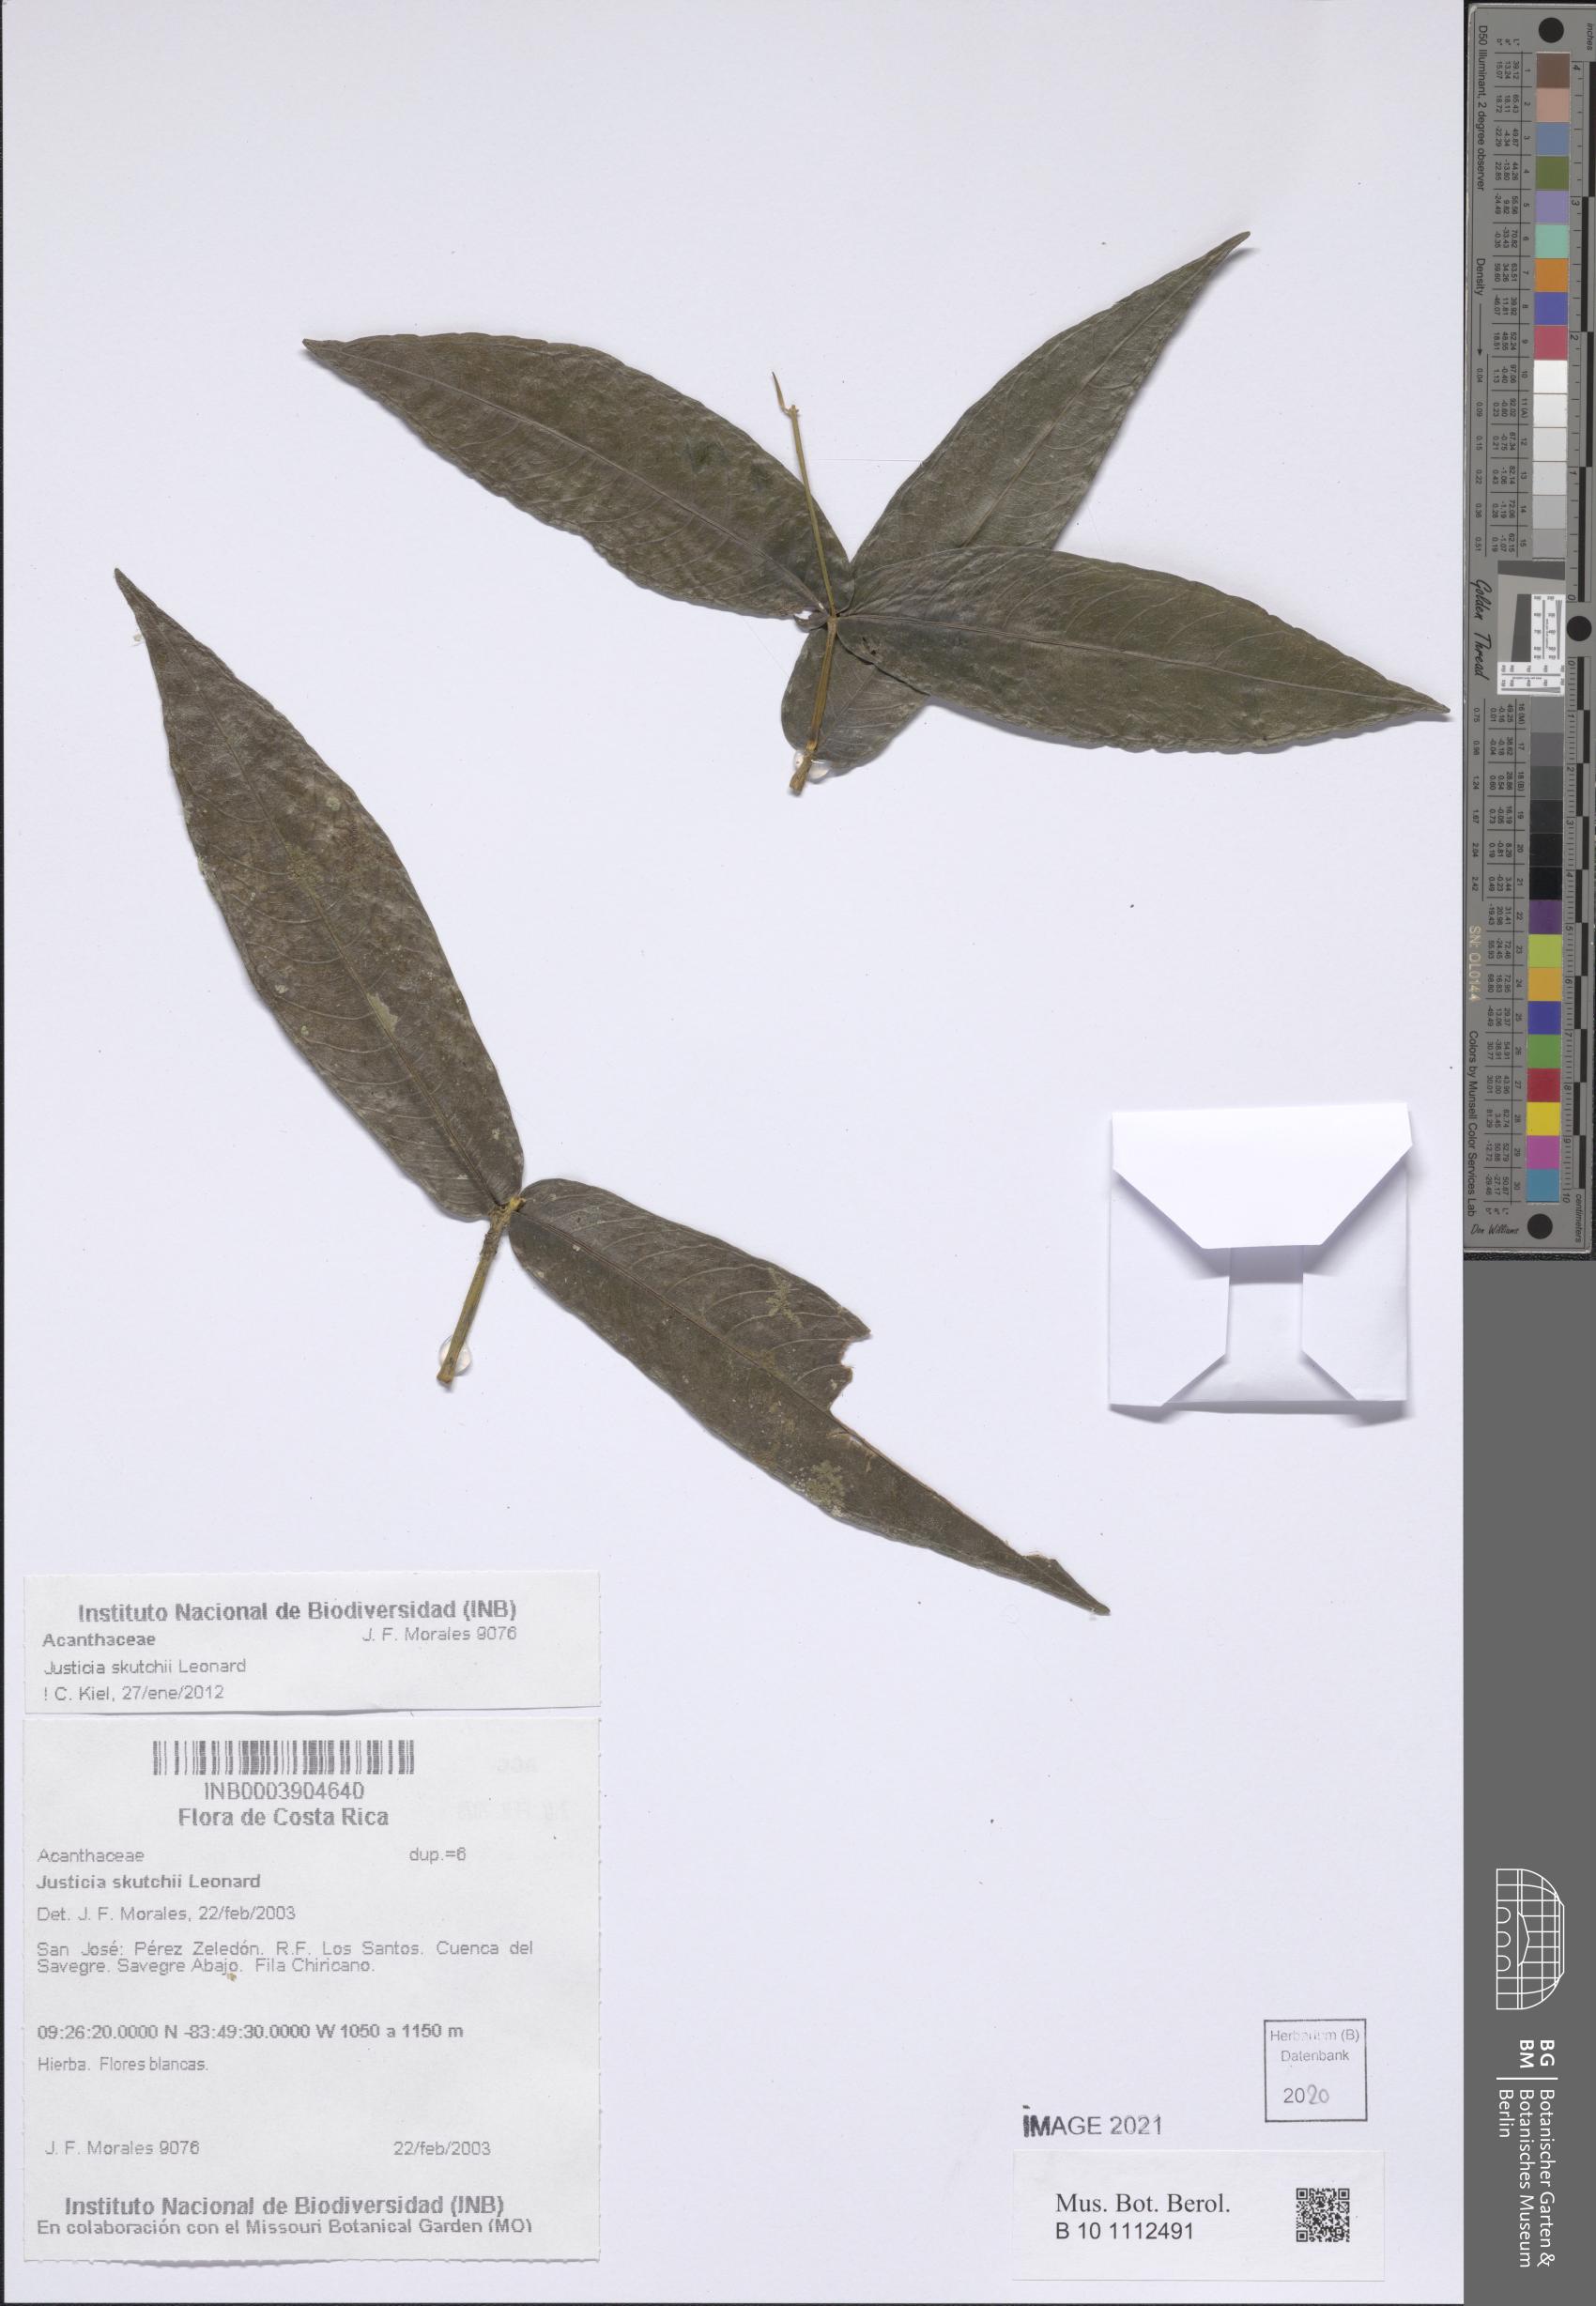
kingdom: Plantae
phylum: Tracheophyta
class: Magnoliopsida
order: Lamiales
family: Acanthaceae
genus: Justicia
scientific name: Justicia skutchii
